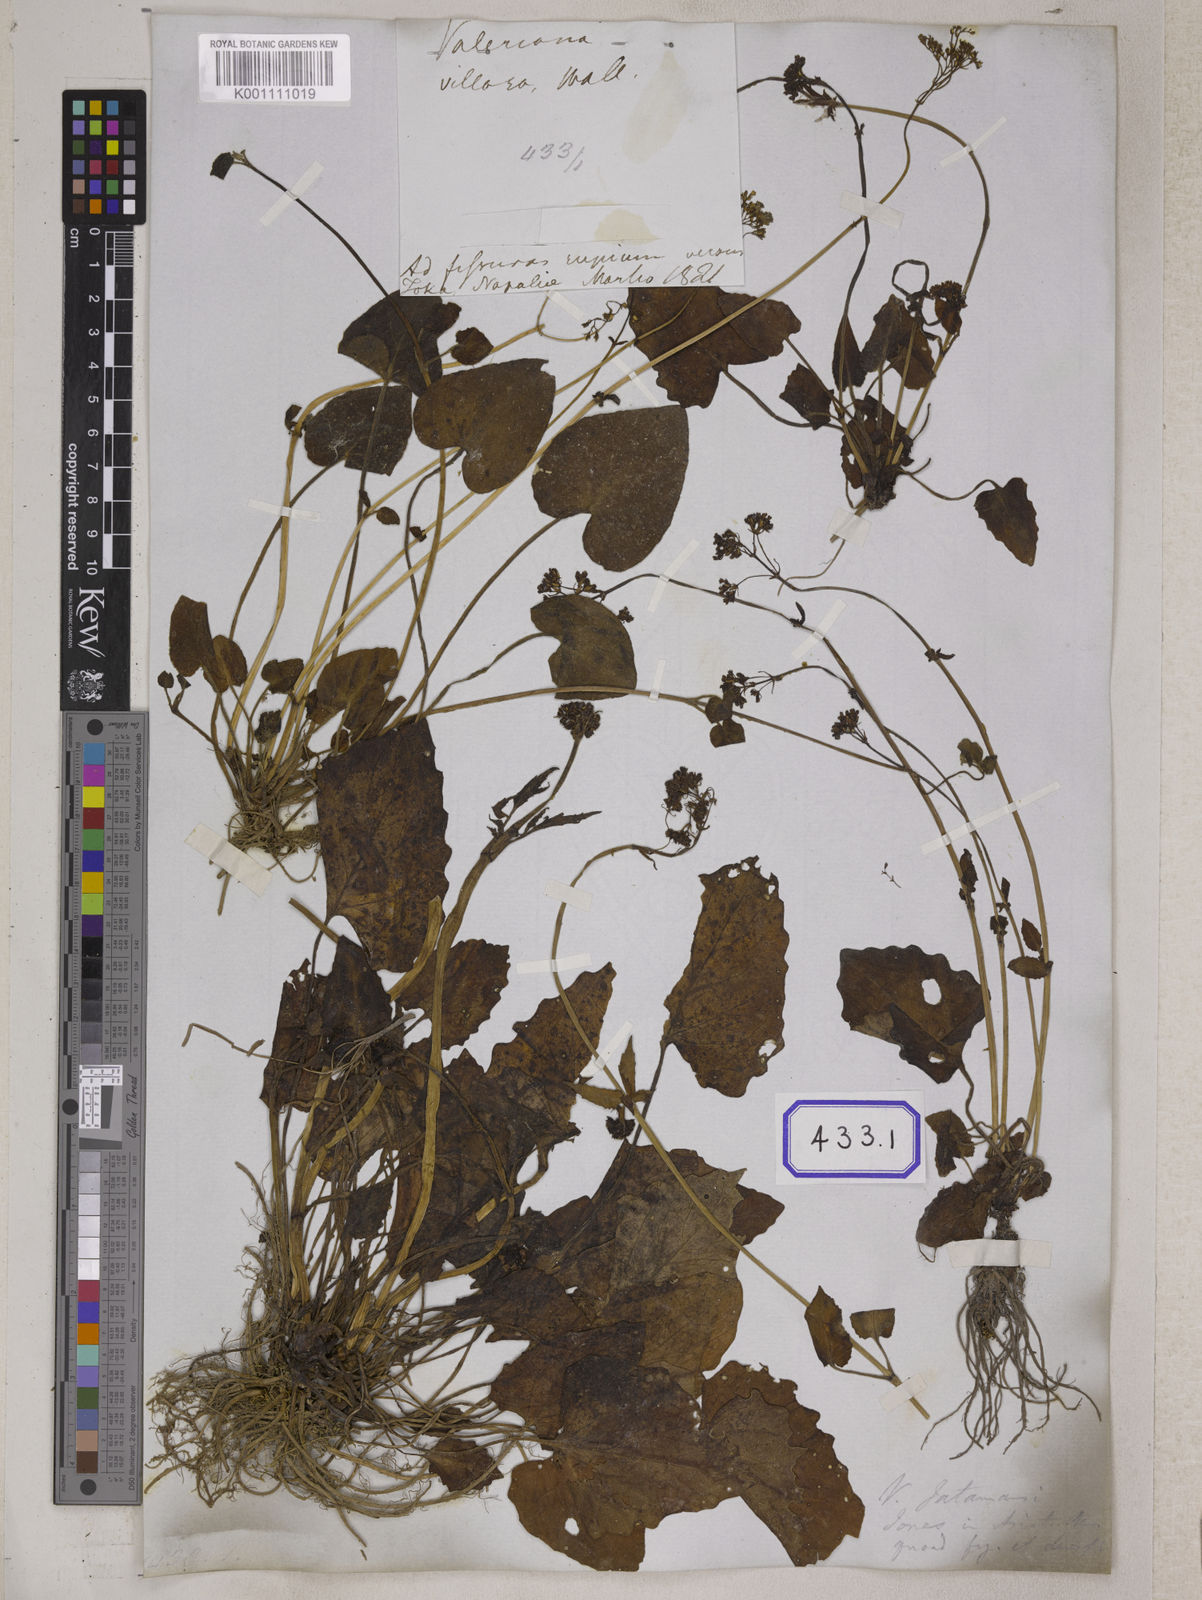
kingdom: Plantae
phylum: Tracheophyta
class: Magnoliopsida
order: Dipsacales
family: Caprifoliaceae
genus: Valeriana
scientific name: Valeriana
